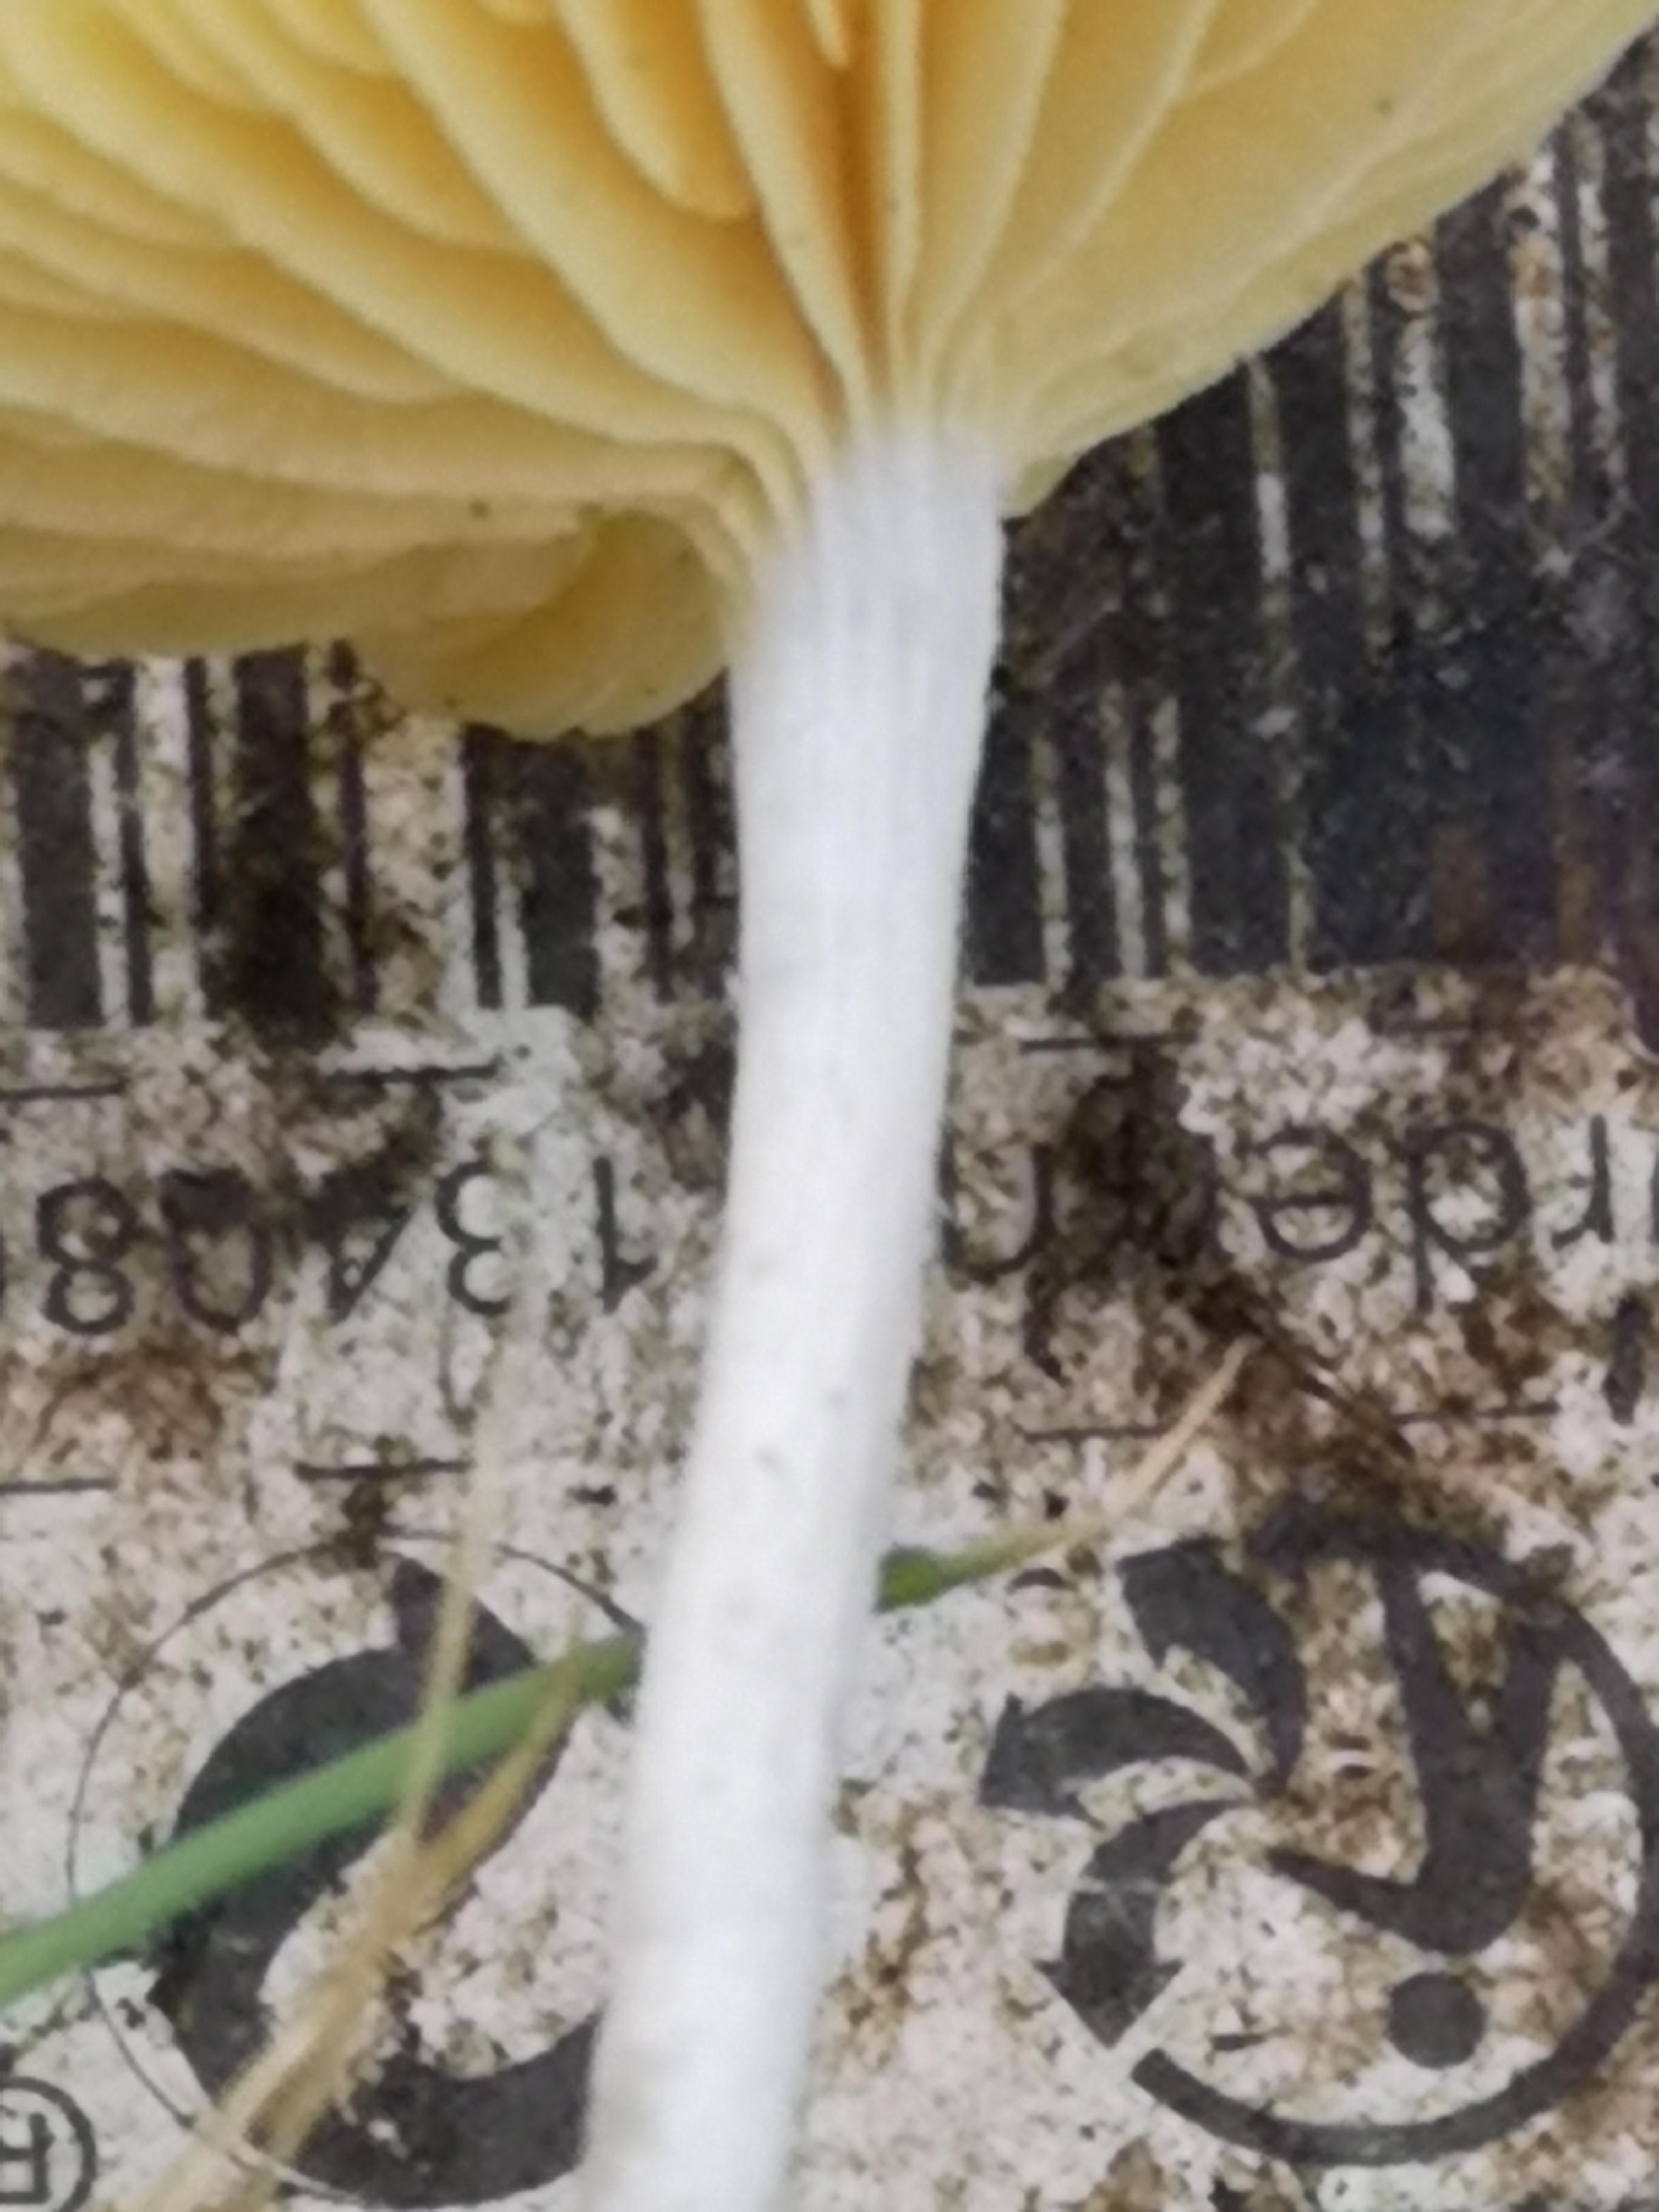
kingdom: Fungi
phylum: Basidiomycota
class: Agaricomycetes
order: Agaricales
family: Tubariaceae
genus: Tubaria
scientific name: Tubaria dispersa
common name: tjørne-fnughat
